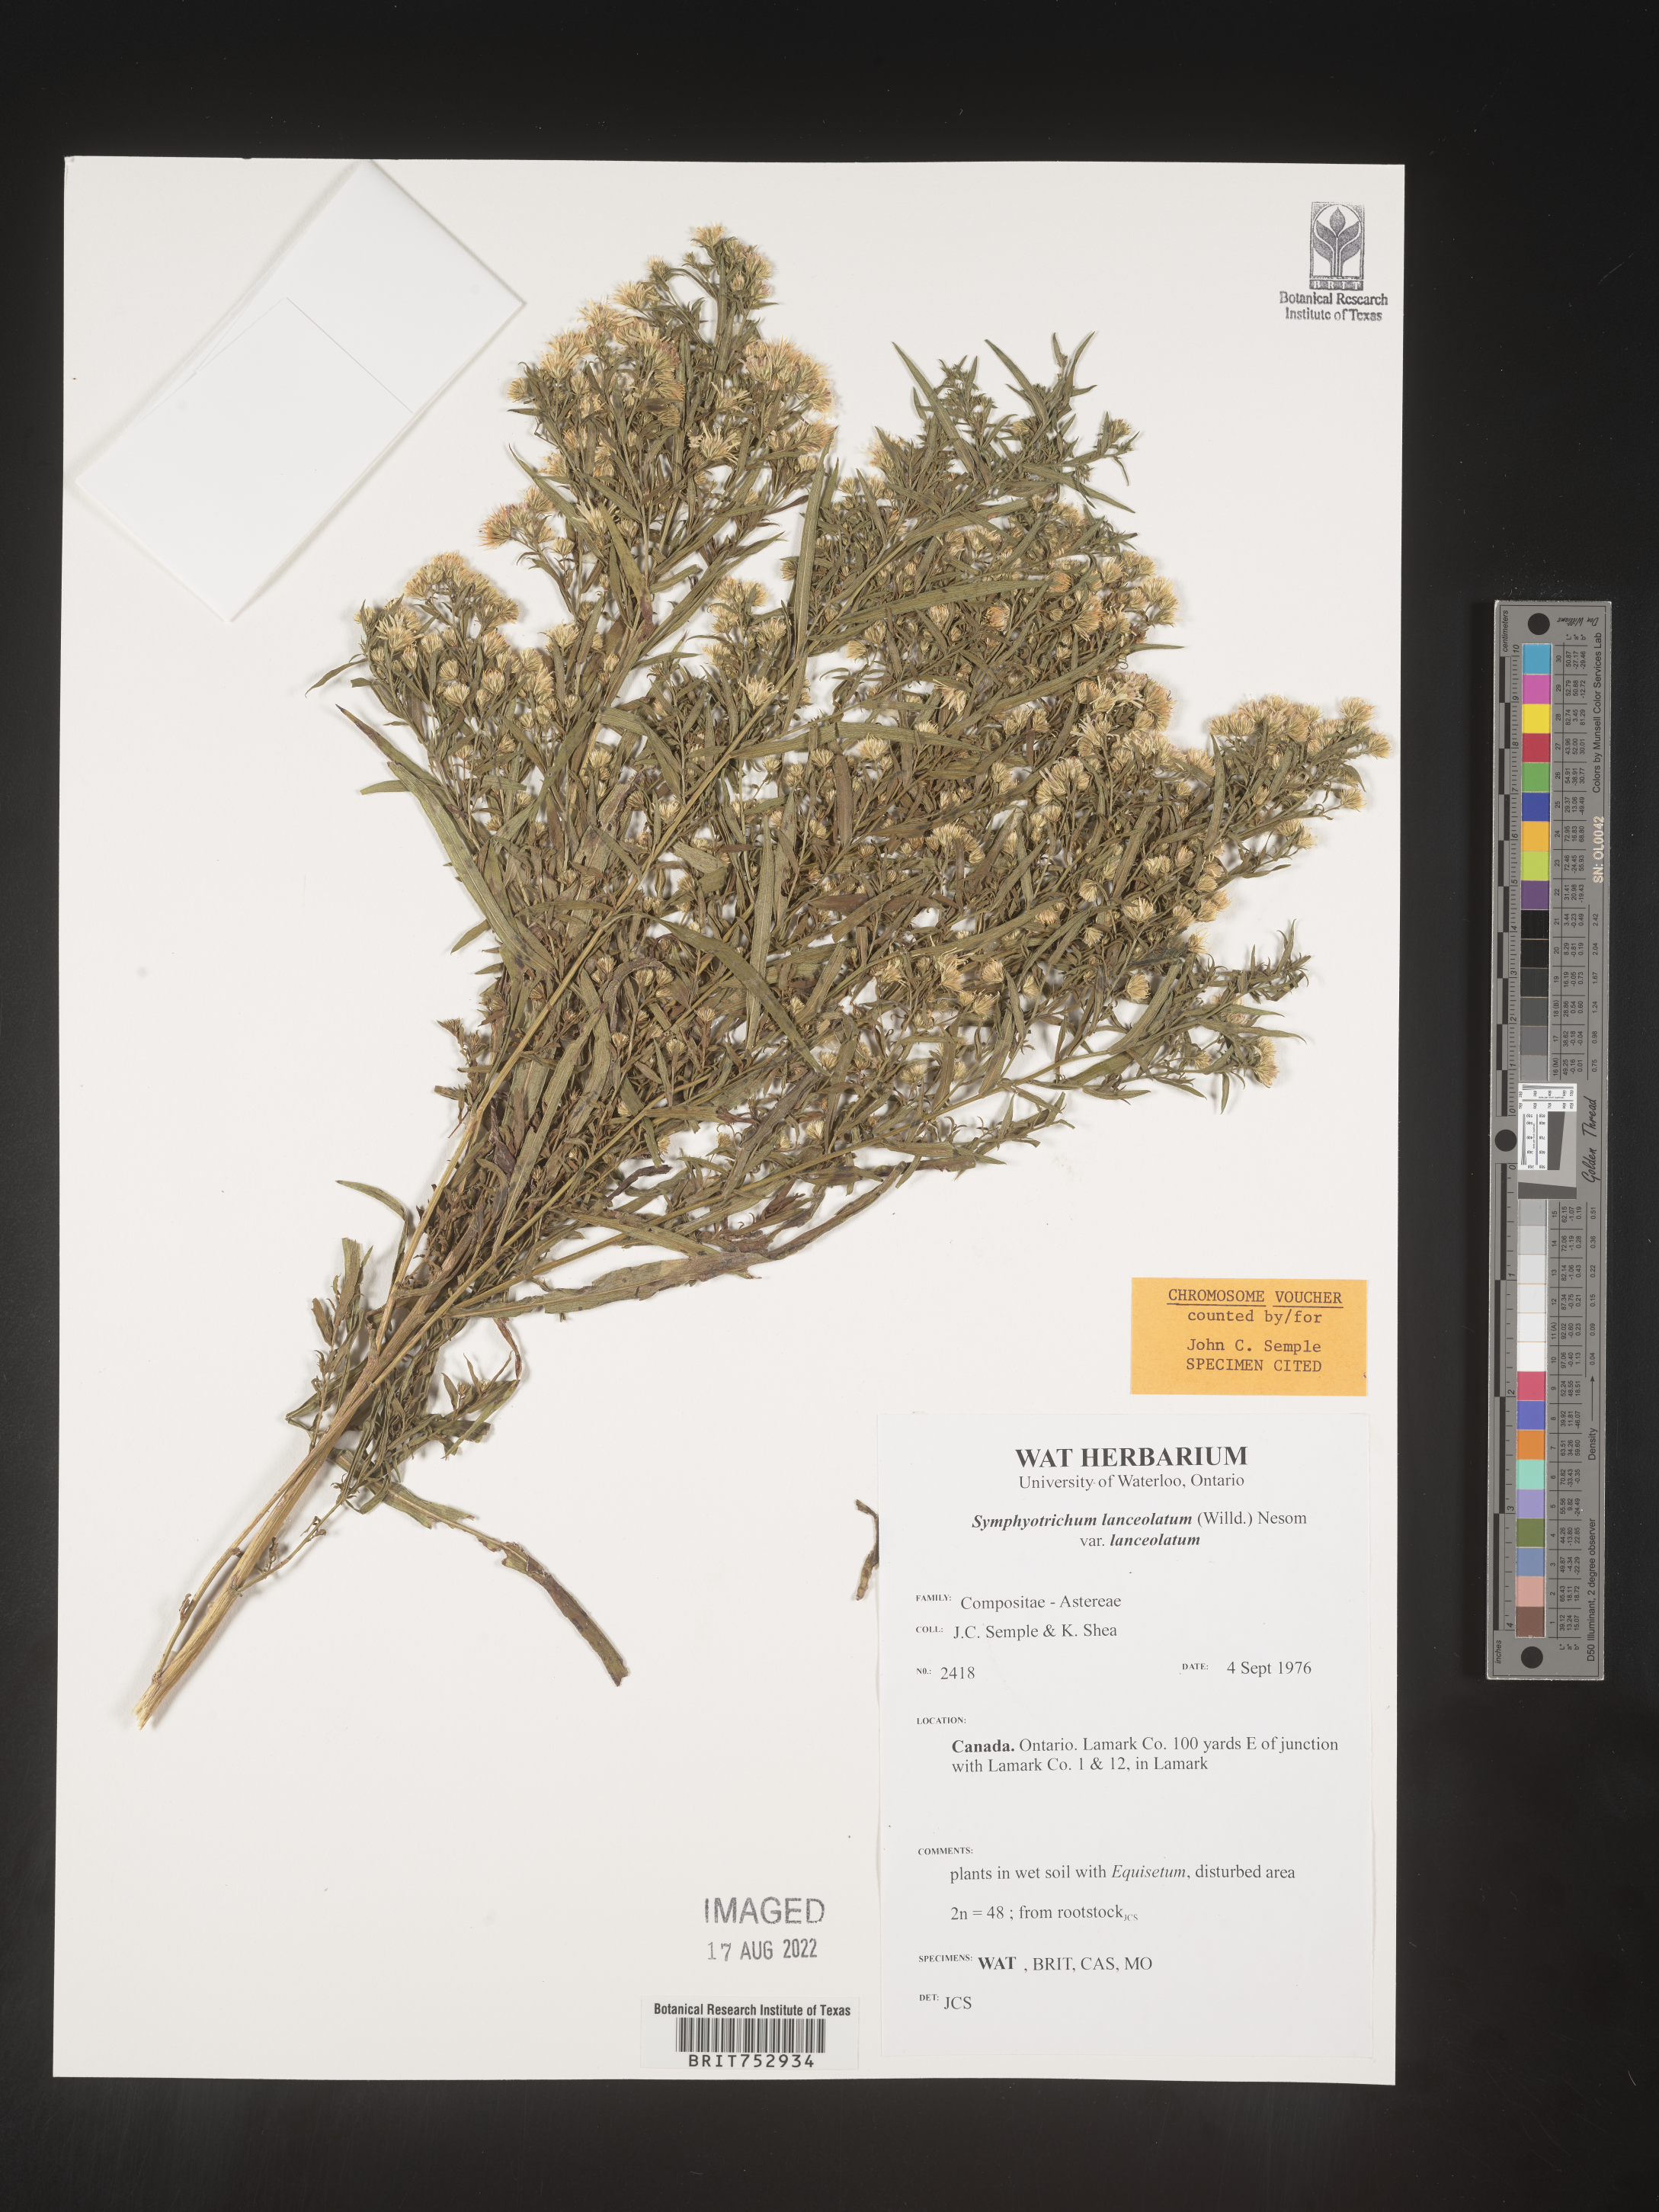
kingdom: Plantae
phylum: Tracheophyta
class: Magnoliopsida
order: Asterales
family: Asteraceae
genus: Symphyotrichum
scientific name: Symphyotrichum lanceolatum
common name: Panicled aster
